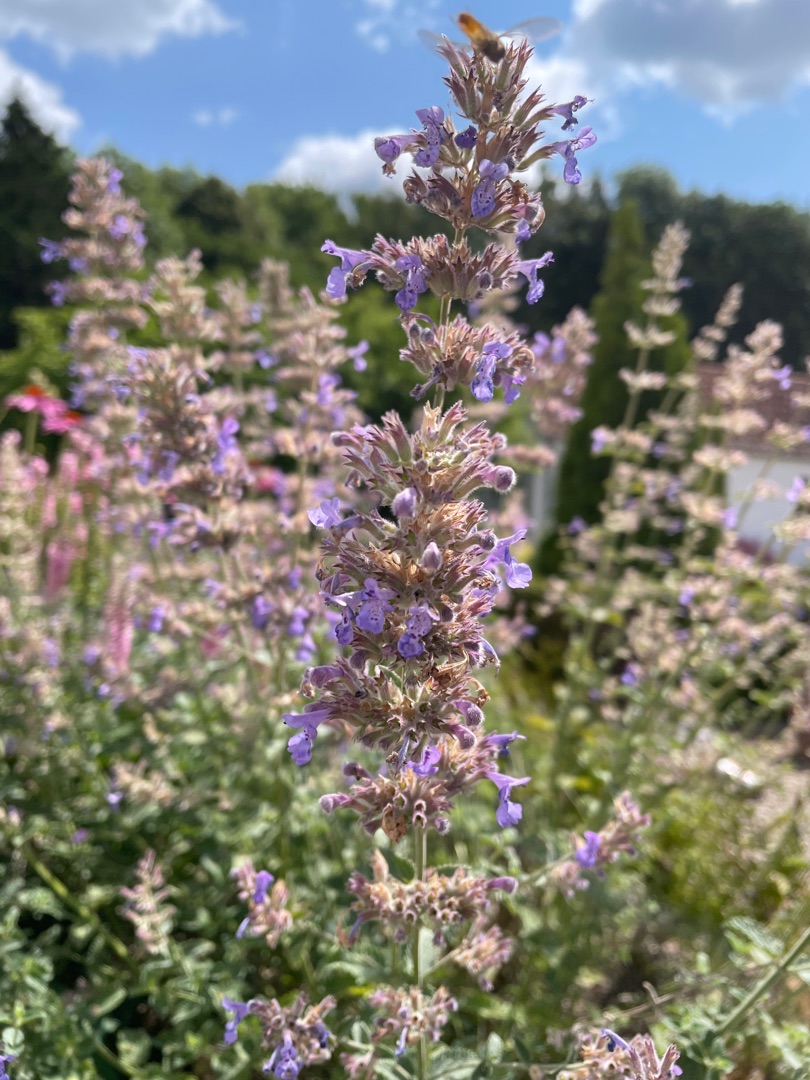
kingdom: Plantae
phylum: Tracheophyta
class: Magnoliopsida
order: Lamiales
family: Lamiaceae
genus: Nepeta
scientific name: Nepeta racemosa
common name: Ægte blåkant
